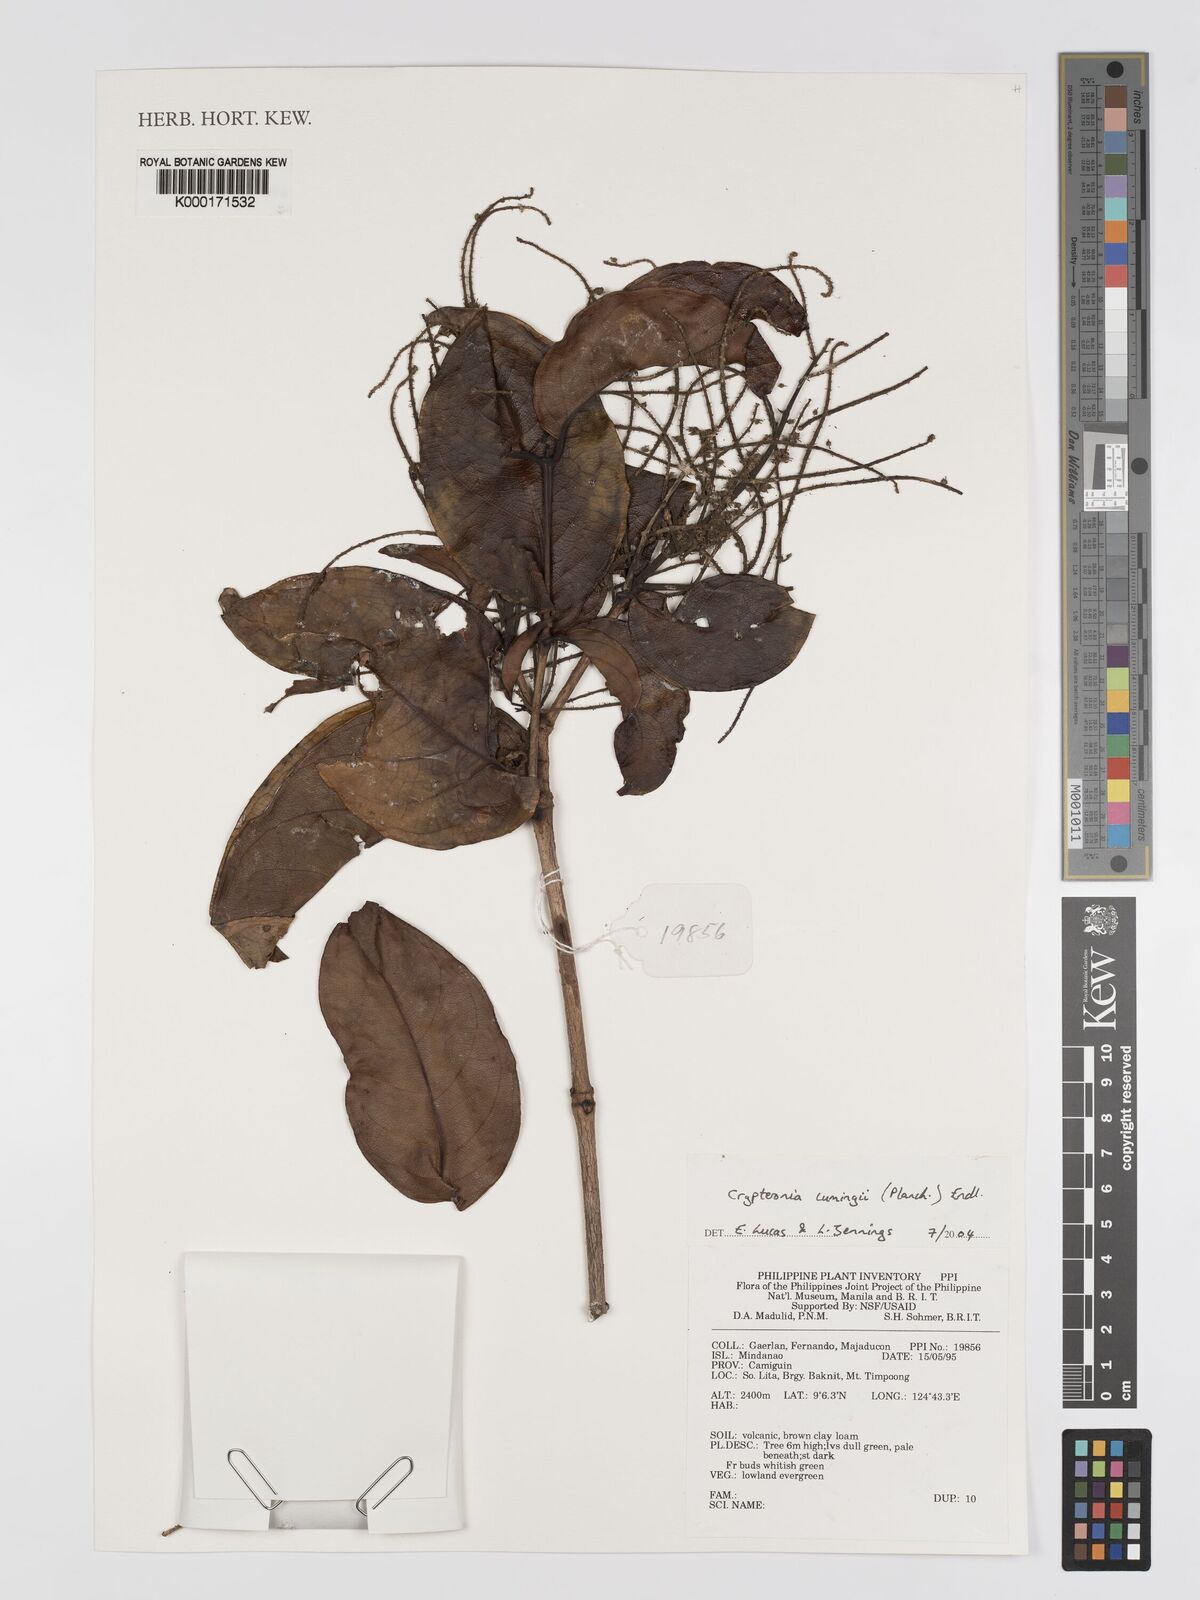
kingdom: Plantae
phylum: Tracheophyta
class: Magnoliopsida
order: Myrtales
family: Crypteroniaceae
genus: Crypteronia
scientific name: Crypteronia cumingii
